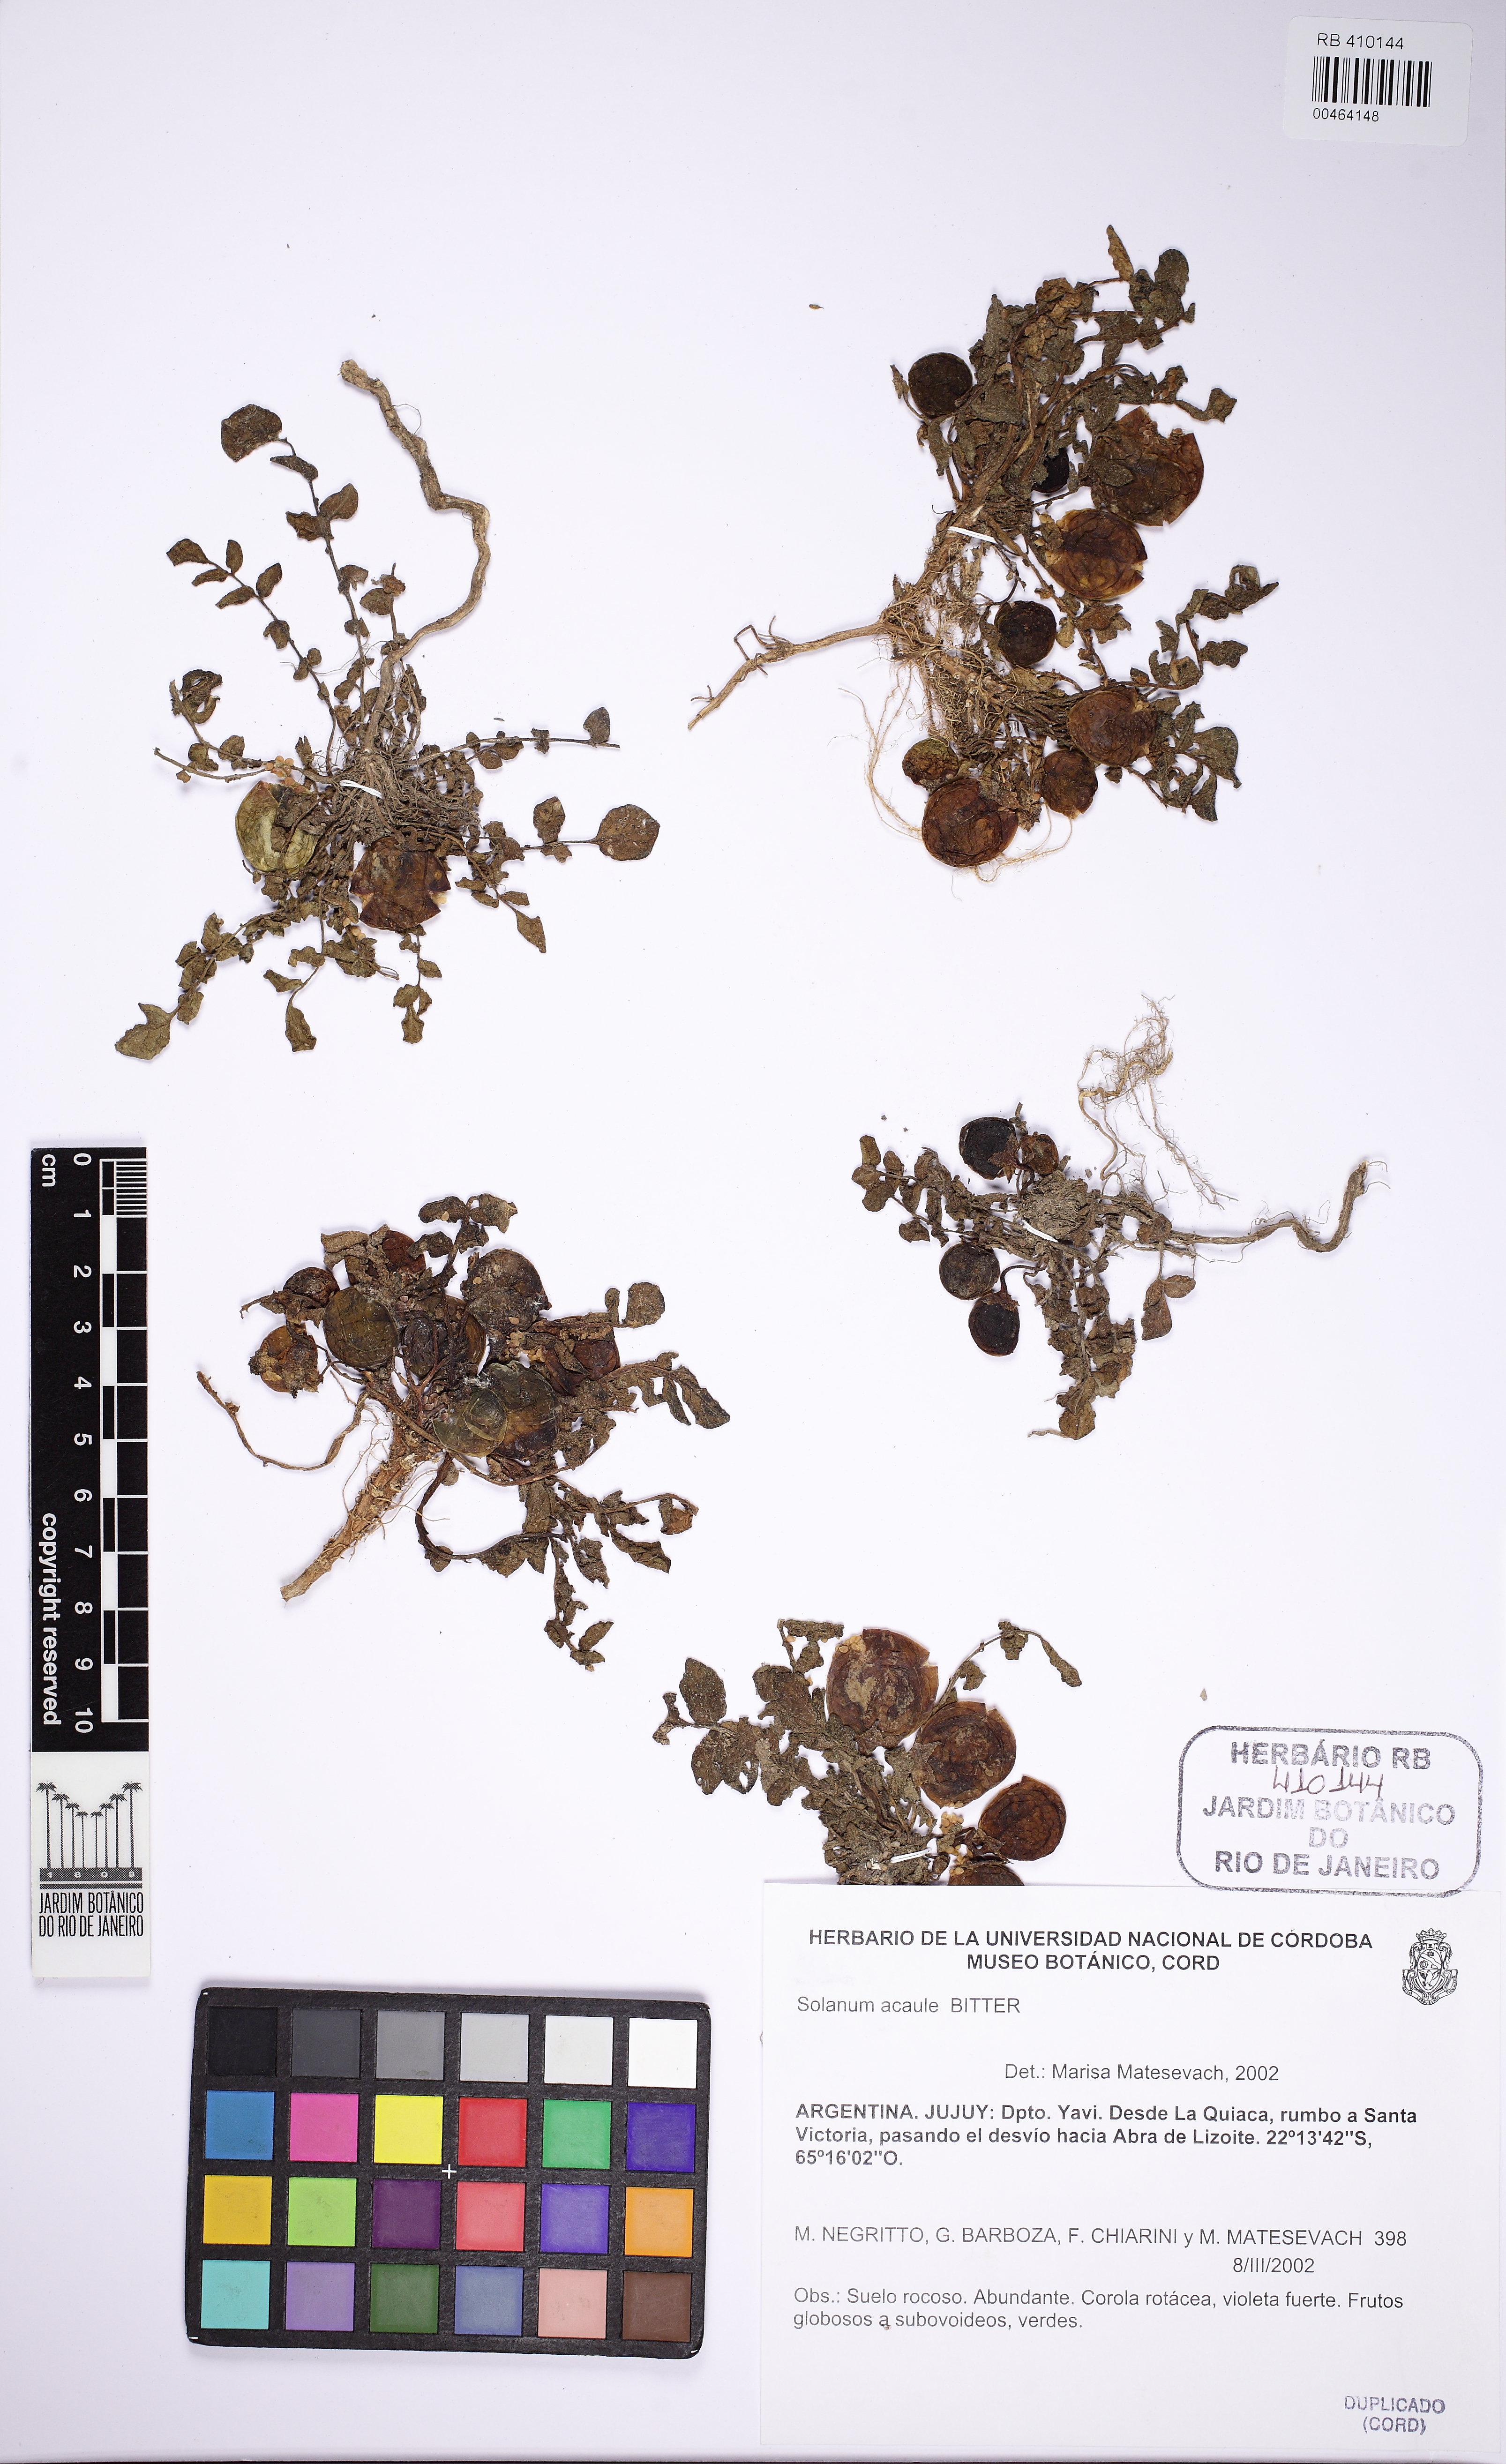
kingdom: Plantae
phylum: Tracheophyta
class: Magnoliopsida
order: Solanales
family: Solanaceae
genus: Solanum
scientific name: Solanum acaule
